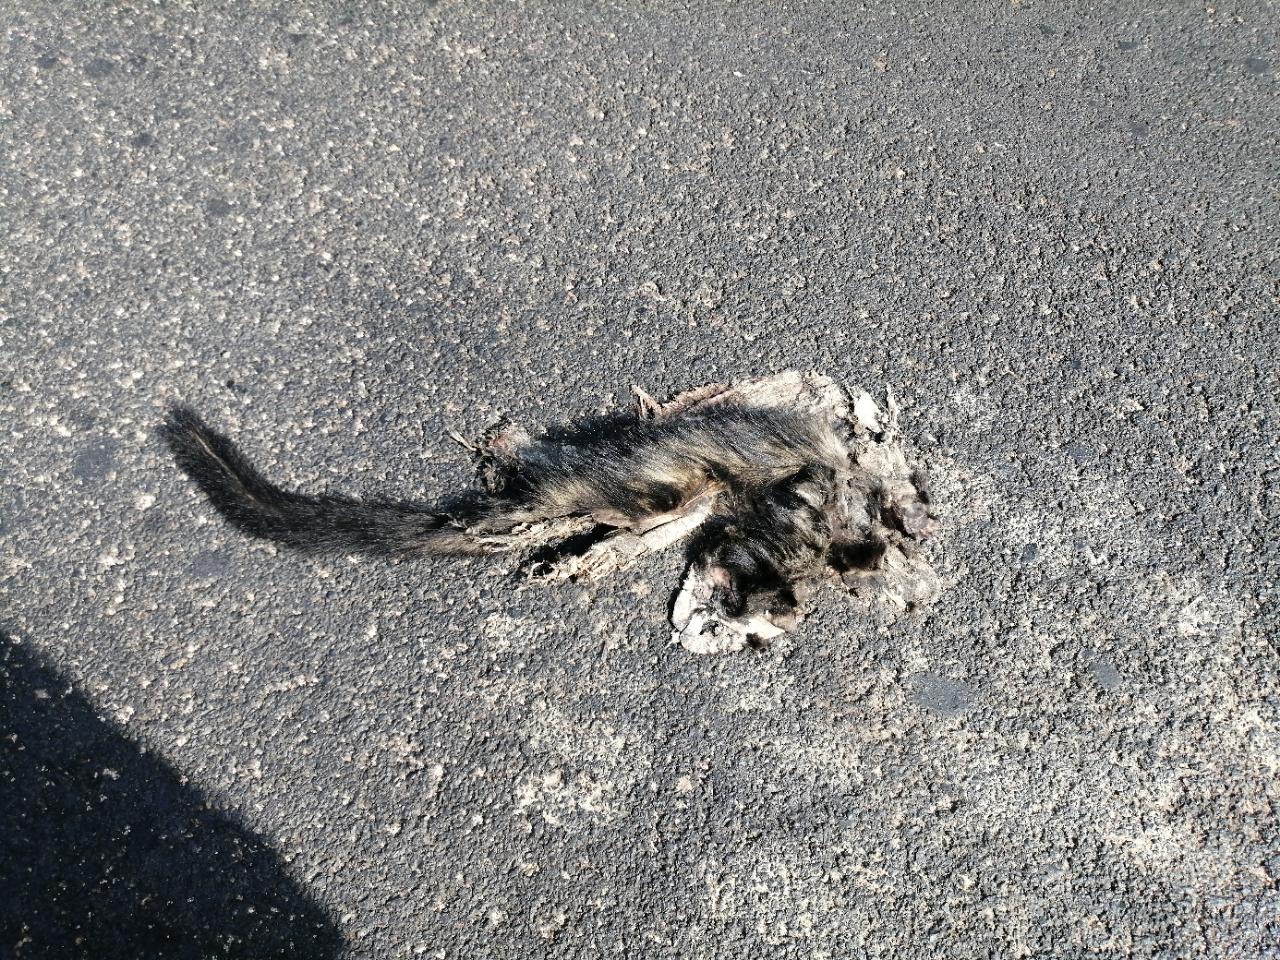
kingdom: Animalia
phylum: Chordata
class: Mammalia
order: Carnivora
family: Viverridae
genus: Paradoxurus
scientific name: Paradoxurus hermaphroditus
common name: Common palm civet
